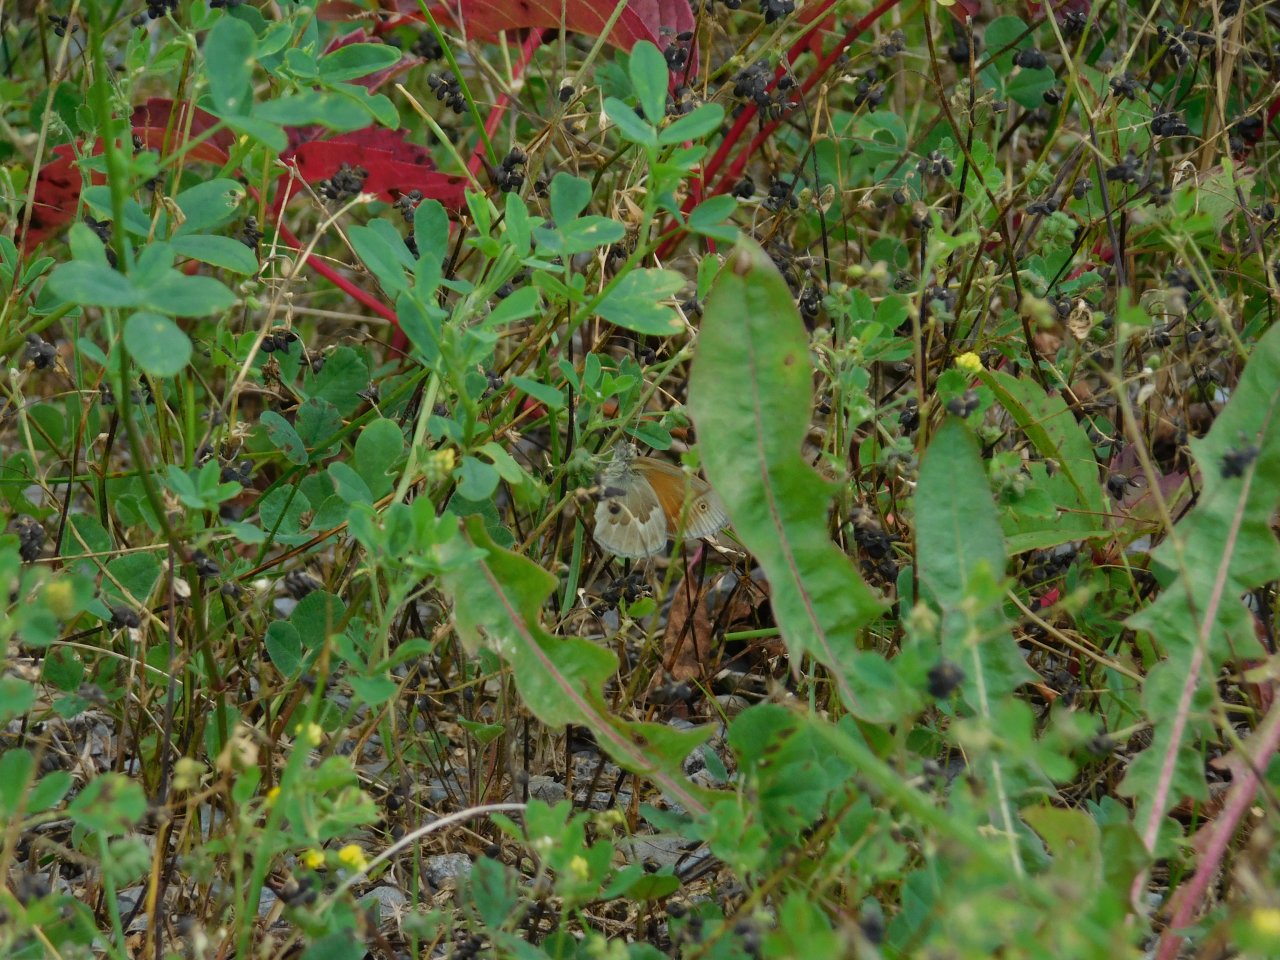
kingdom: Animalia
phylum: Arthropoda
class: Insecta
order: Lepidoptera
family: Nymphalidae
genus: Coenonympha
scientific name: Coenonympha tullia
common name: Large Heath
